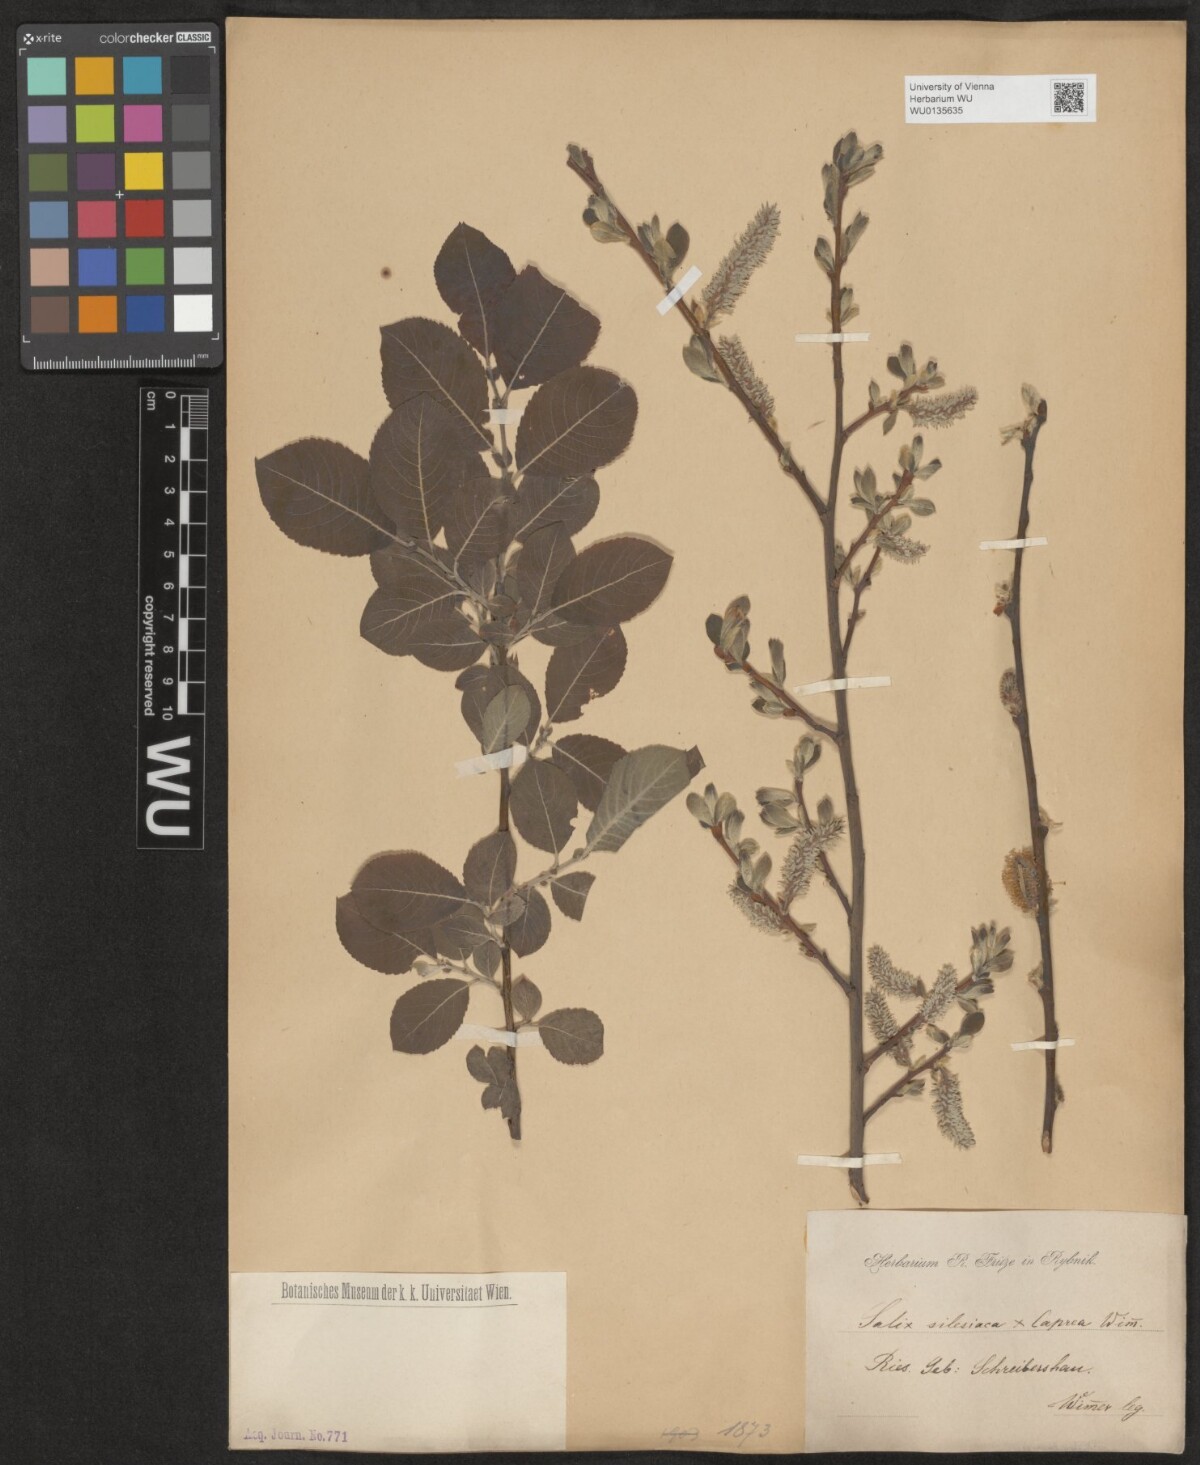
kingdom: Plantae
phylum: Tracheophyta
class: Magnoliopsida
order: Malpighiales
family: Salicaceae
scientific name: Salicaceae
